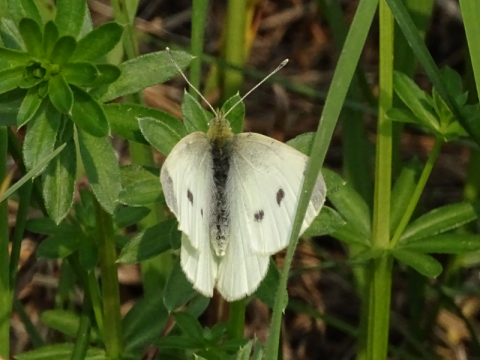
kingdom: Animalia
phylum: Arthropoda
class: Insecta
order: Lepidoptera
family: Pieridae
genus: Pieris
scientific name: Pieris rapae
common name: Cabbage White
